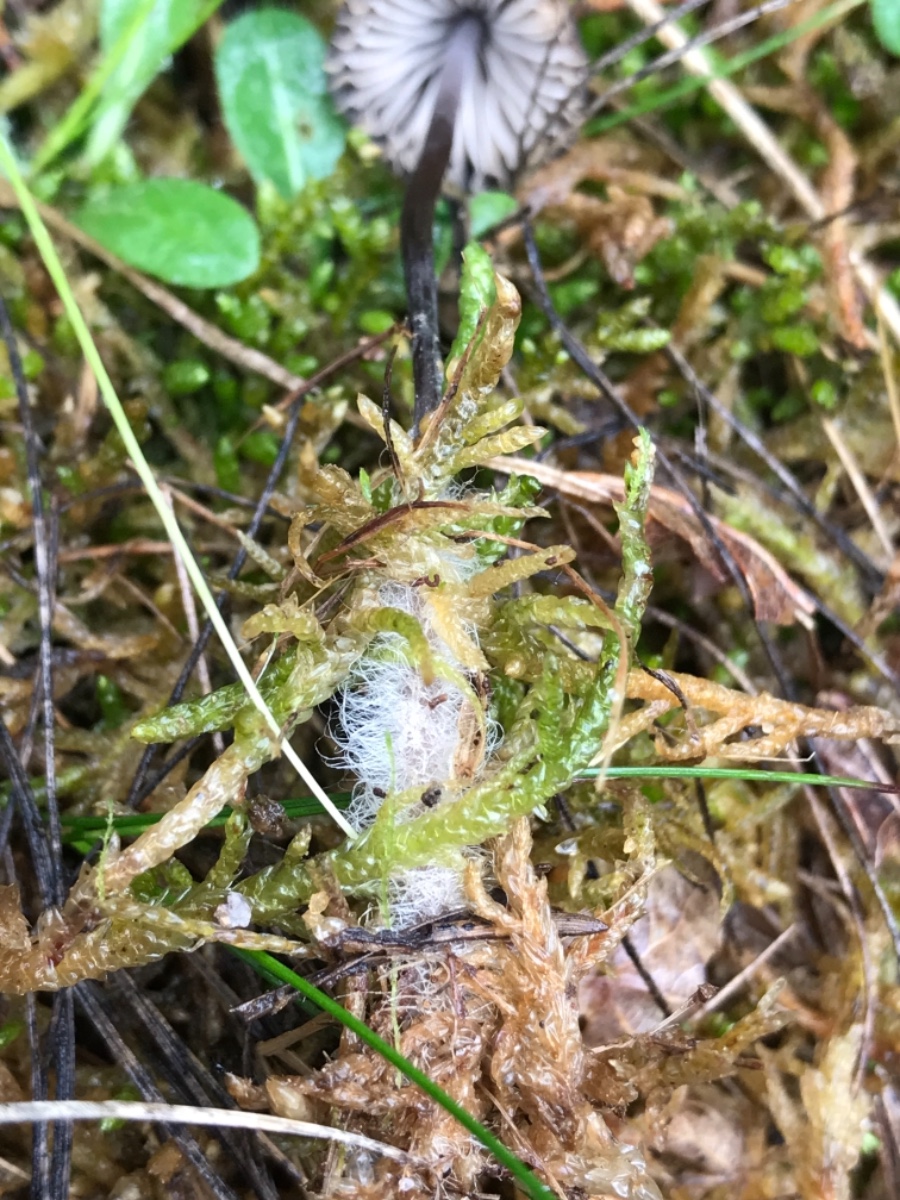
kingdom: Fungi
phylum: Basidiomycota
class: Agaricomycetes
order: Agaricales
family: Mycenaceae
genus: Mycena
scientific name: Mycena
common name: huesvamp
